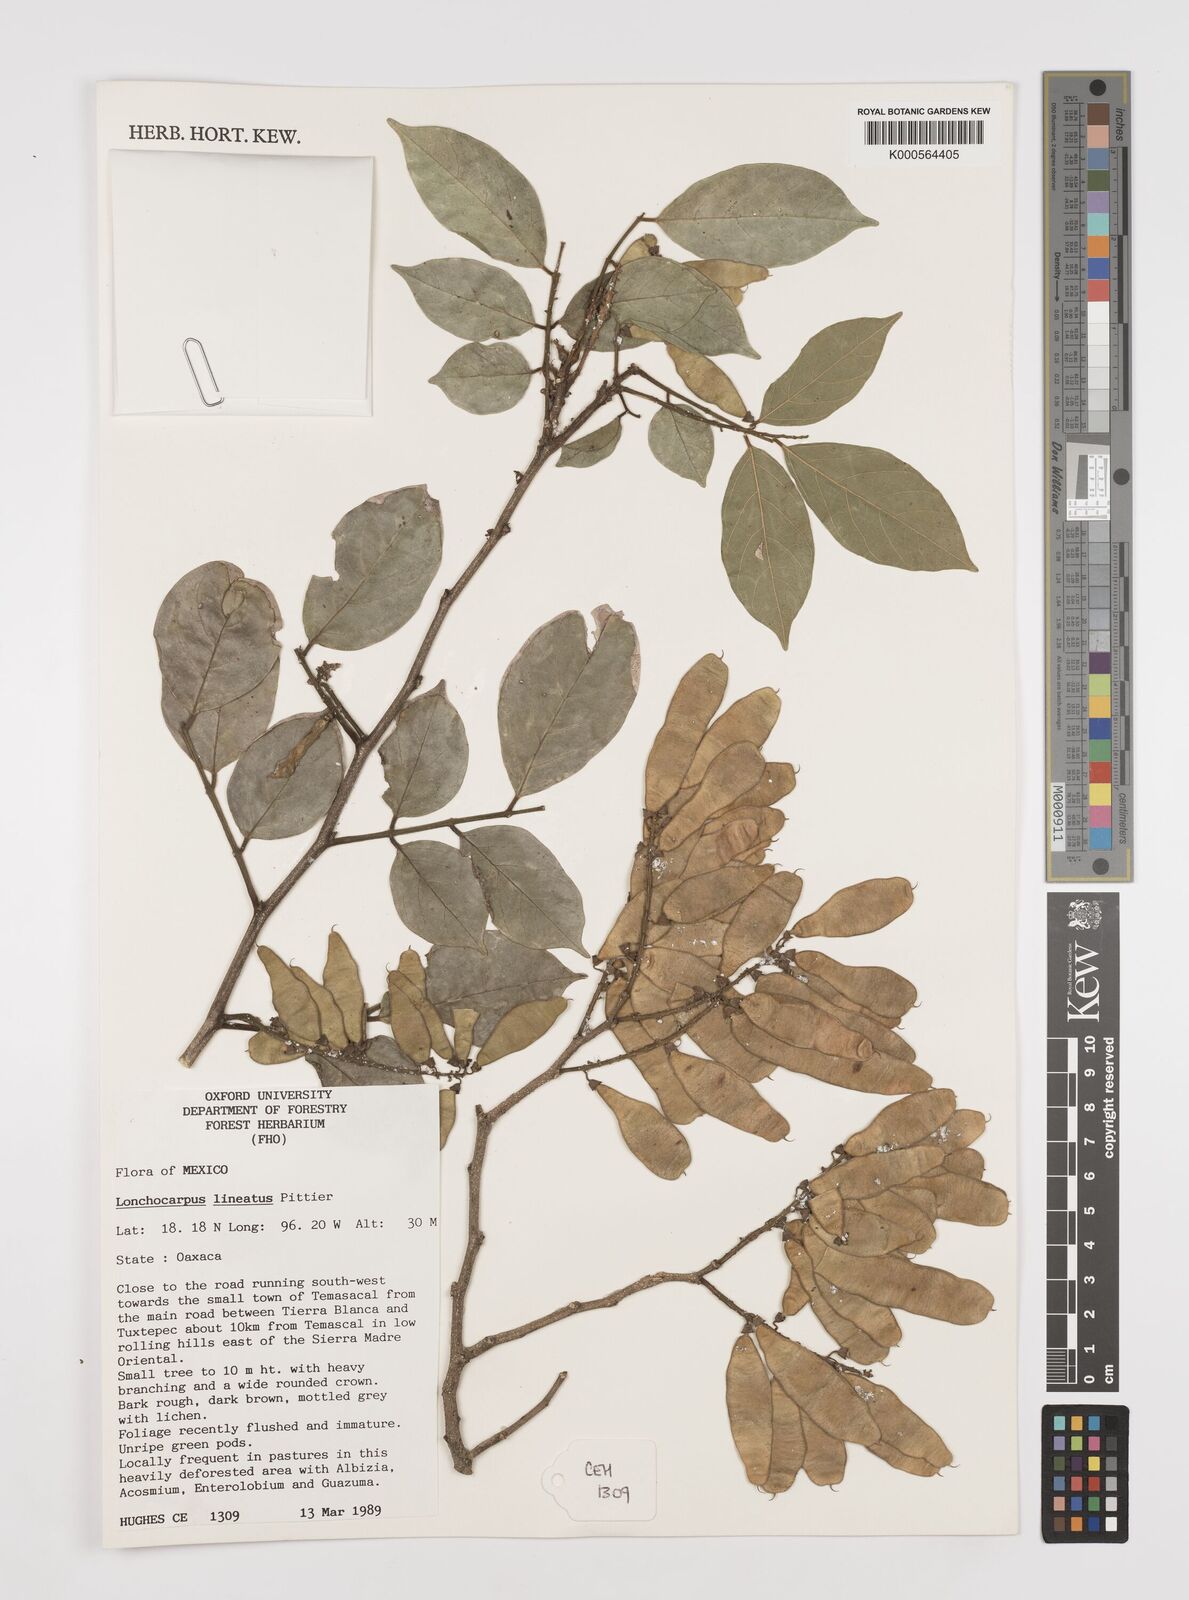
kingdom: Plantae
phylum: Tracheophyta
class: Magnoliopsida
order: Fabales
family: Fabaceae
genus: Lonchocarpus
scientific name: Lonchocarpus lineatus
